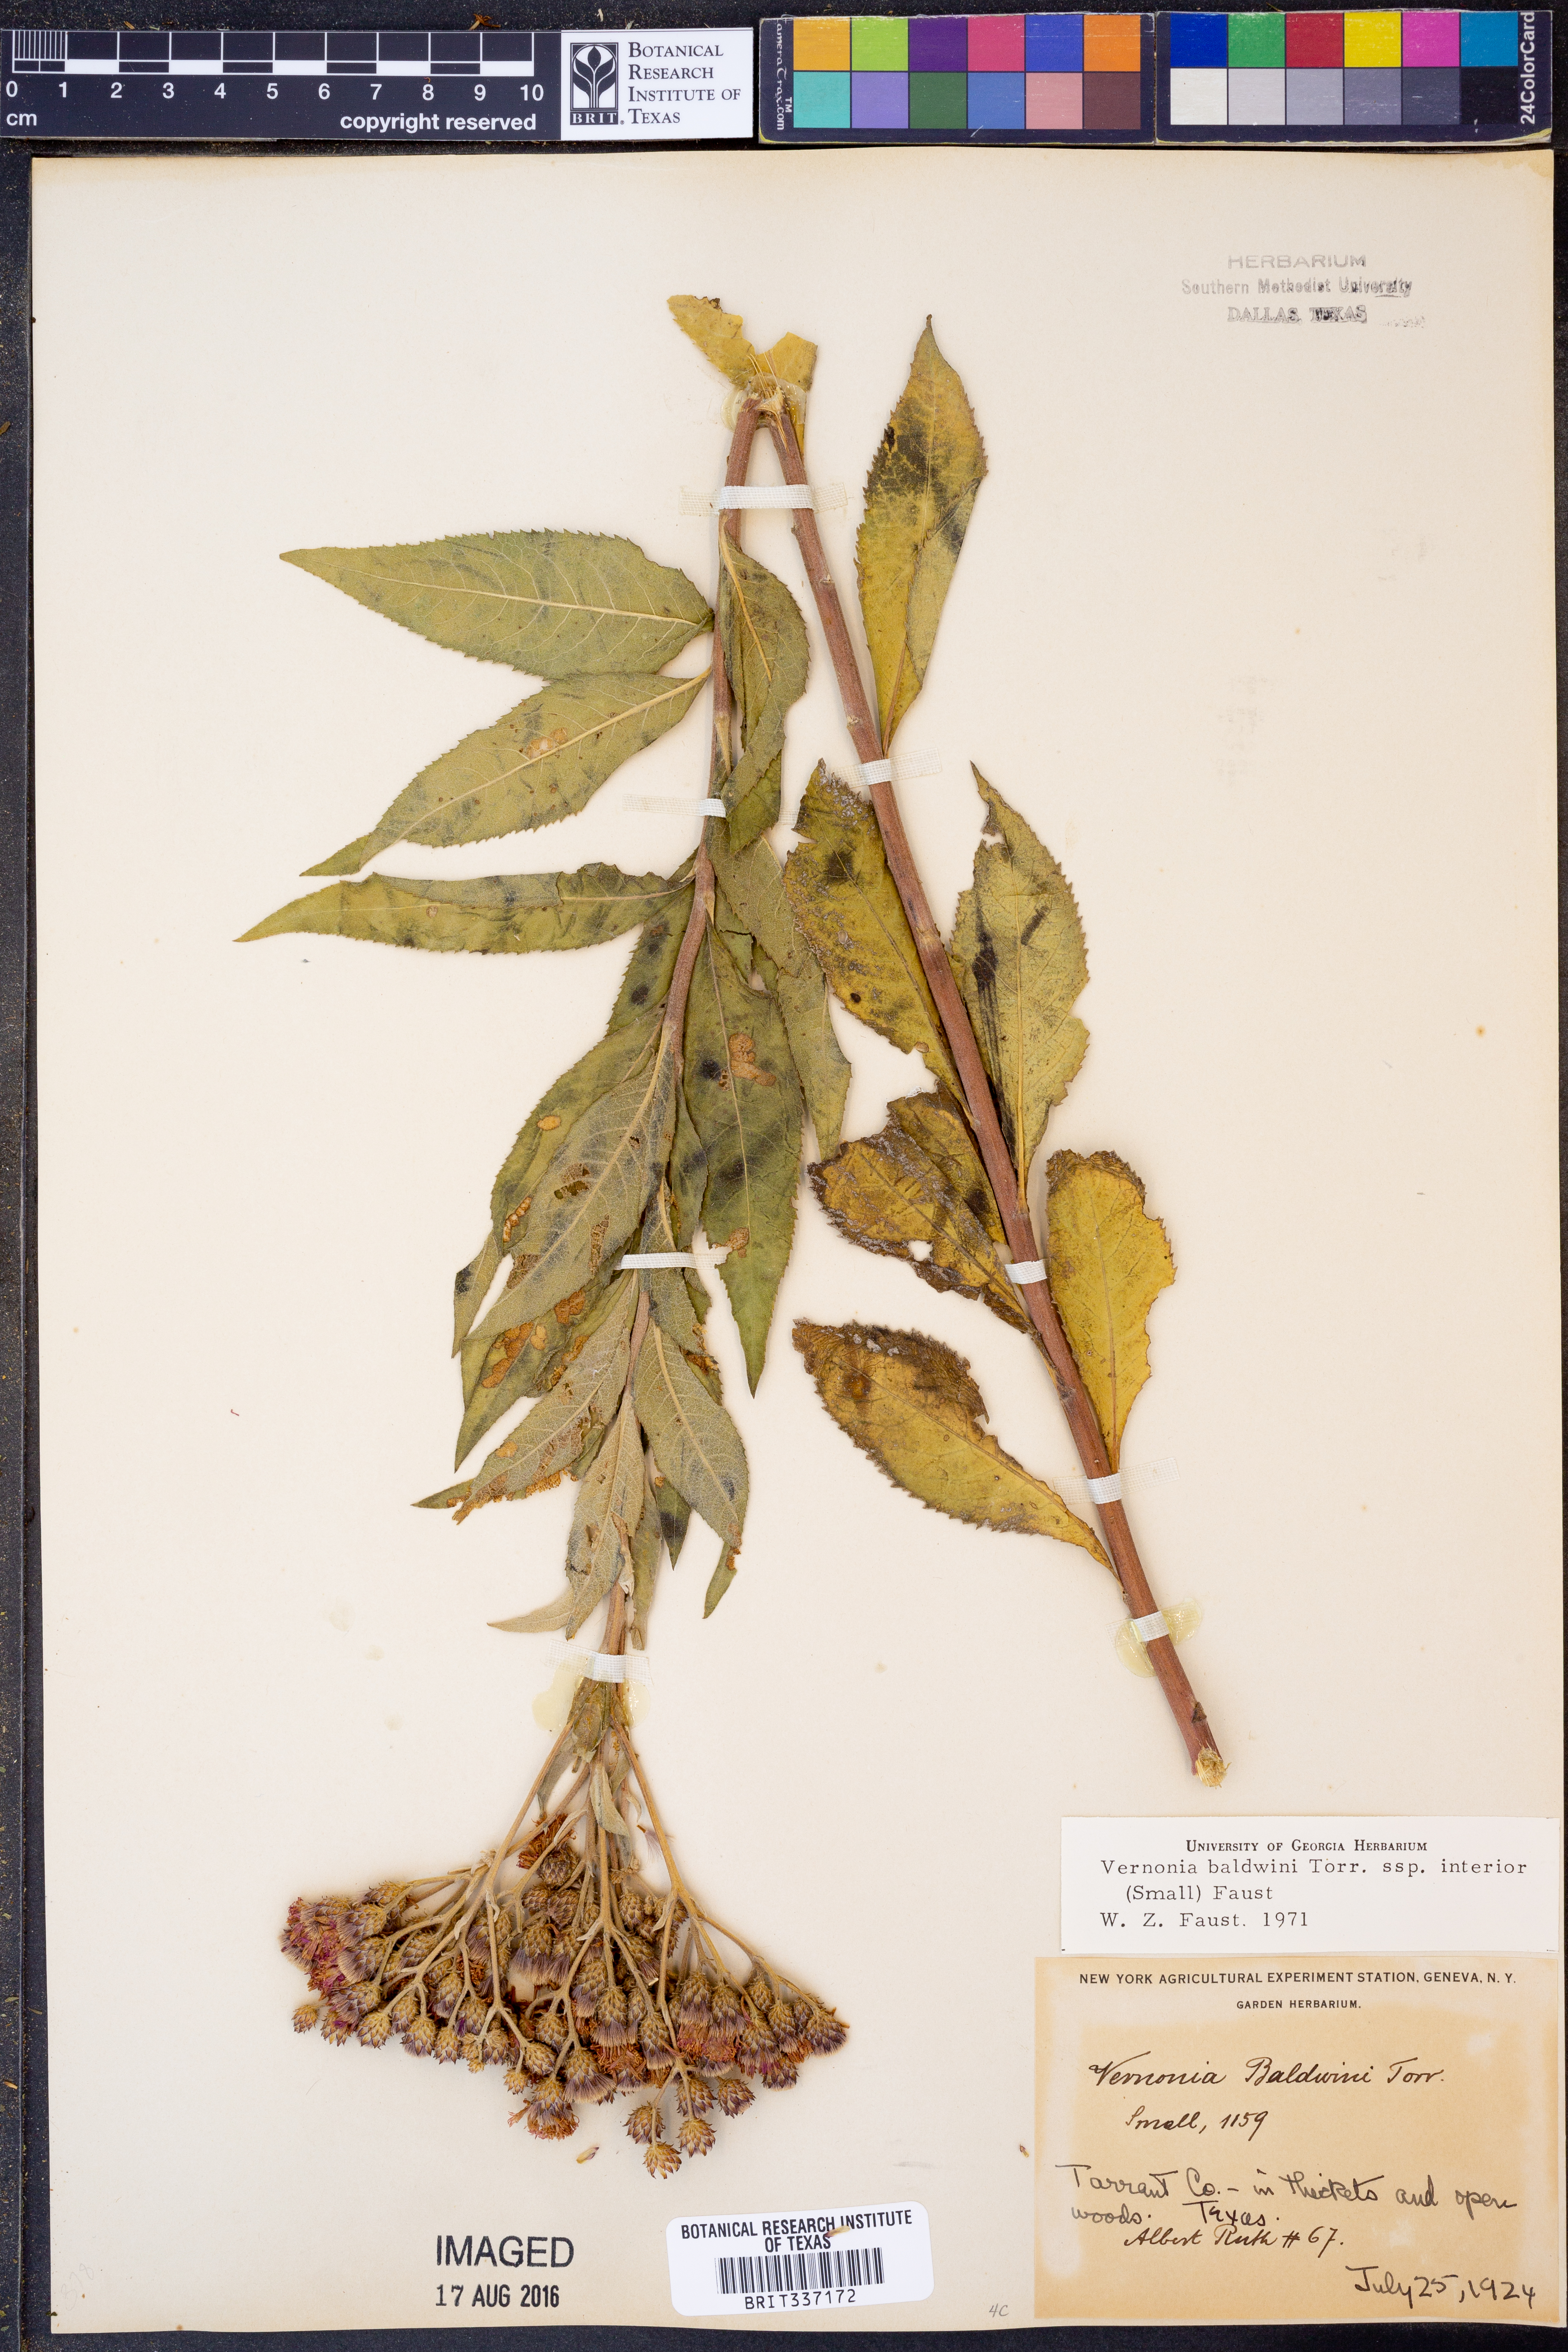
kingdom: Plantae
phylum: Tracheophyta
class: Magnoliopsida
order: Asterales
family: Asteraceae
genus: Vernonia
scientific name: Vernonia baldwinii
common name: Western ironweed
